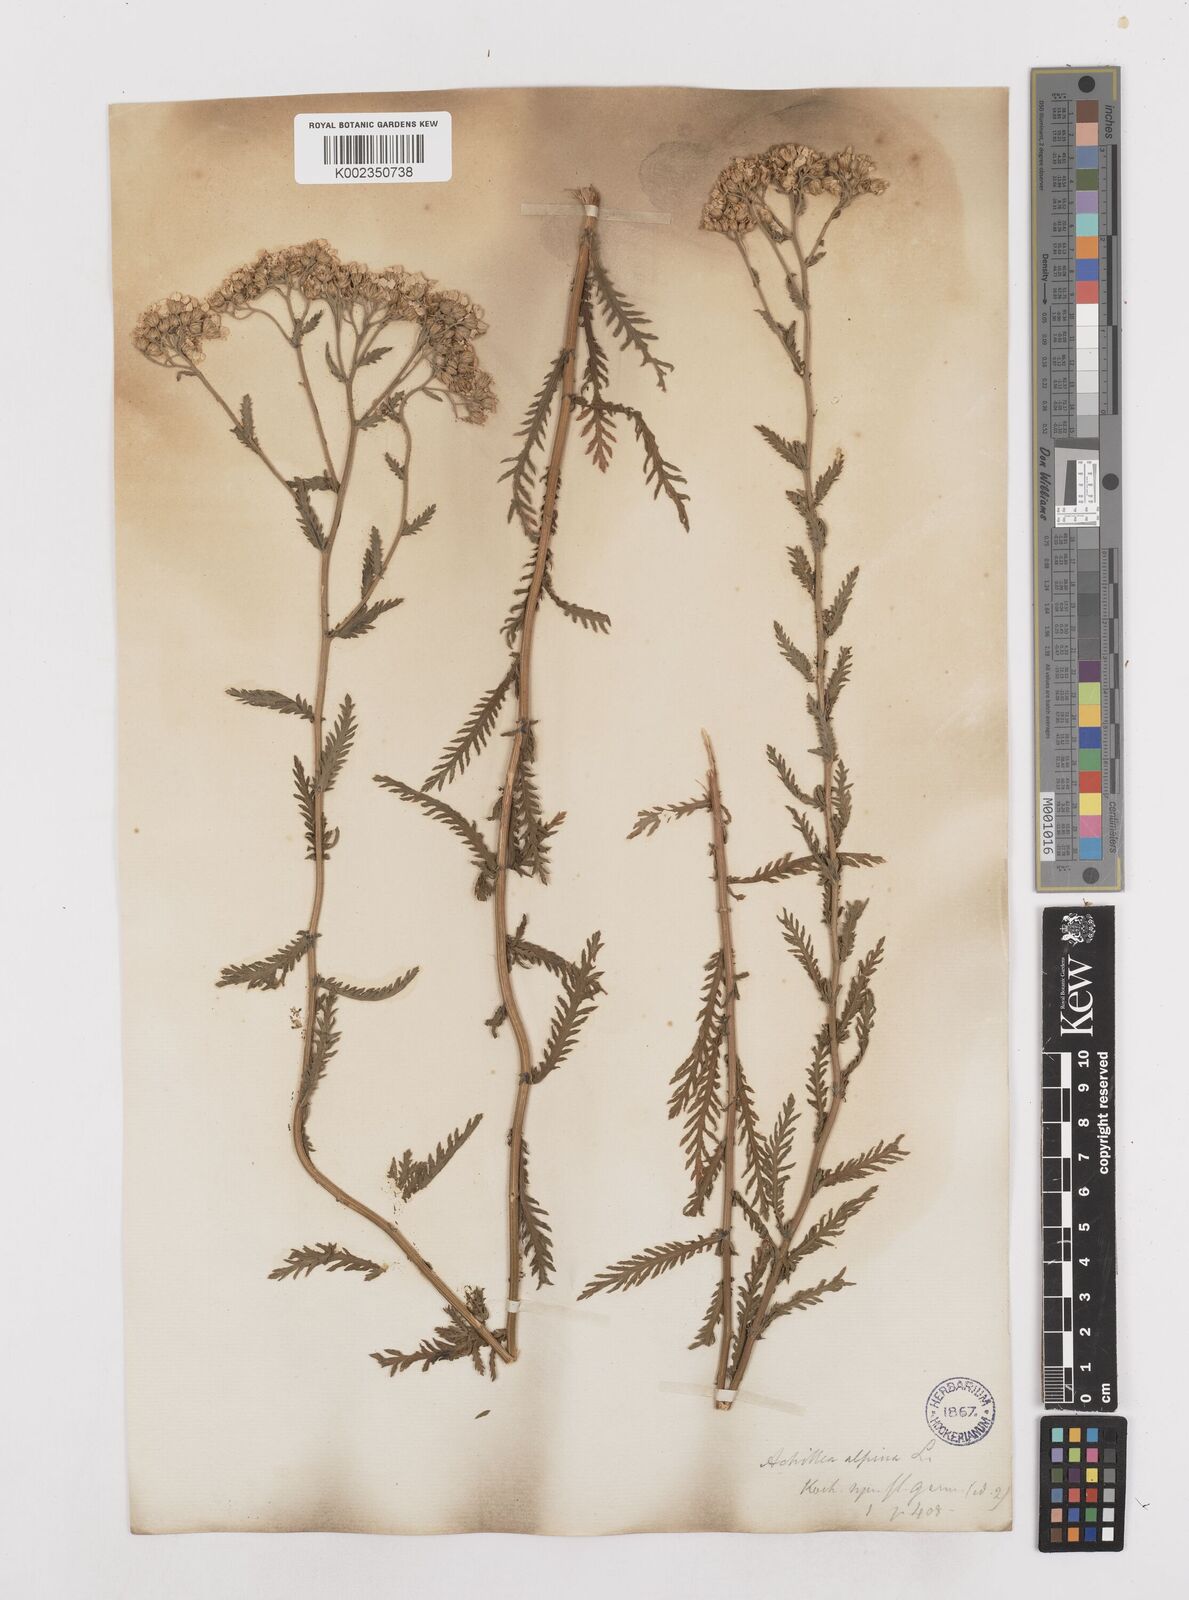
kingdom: Plantae
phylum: Tracheophyta
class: Magnoliopsida
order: Asterales
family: Asteraceae
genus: Achillea
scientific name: Achillea impatiens
